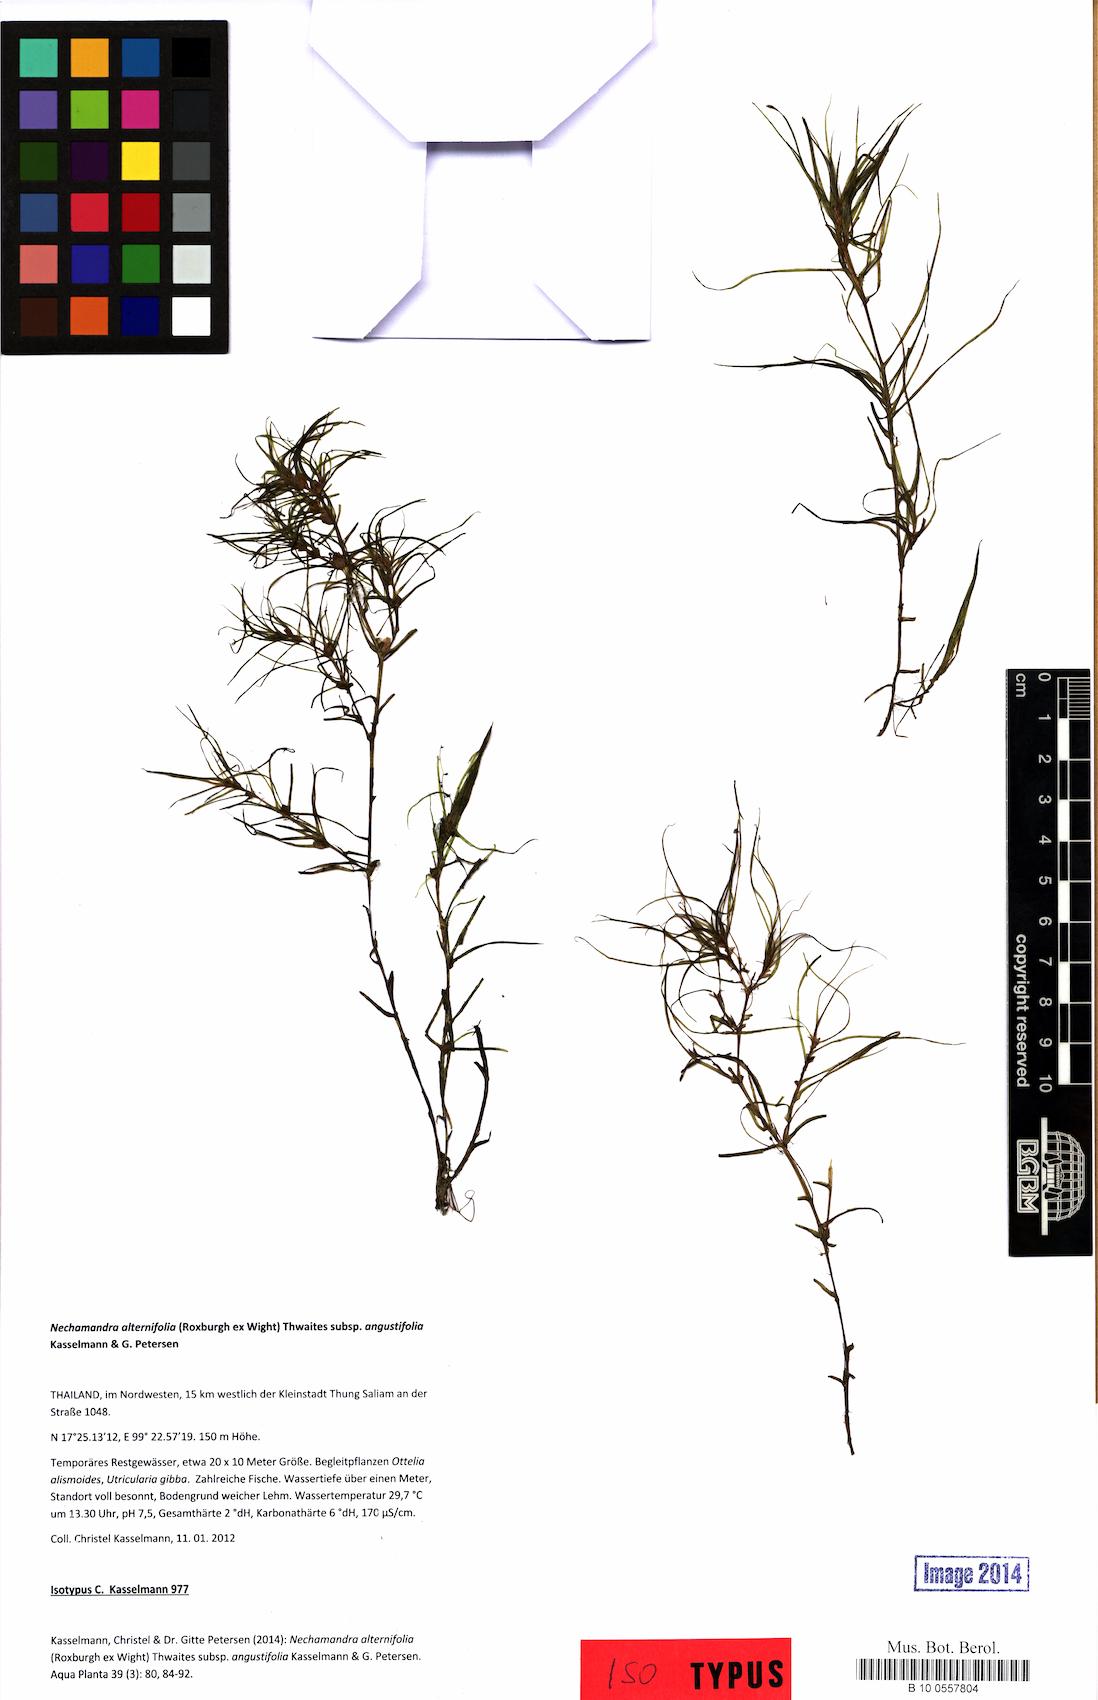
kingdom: Plantae
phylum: Tracheophyta
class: Liliopsida
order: Alismatales
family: Hydrocharitaceae
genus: Nechamandra
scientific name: Nechamandra alternifolia
